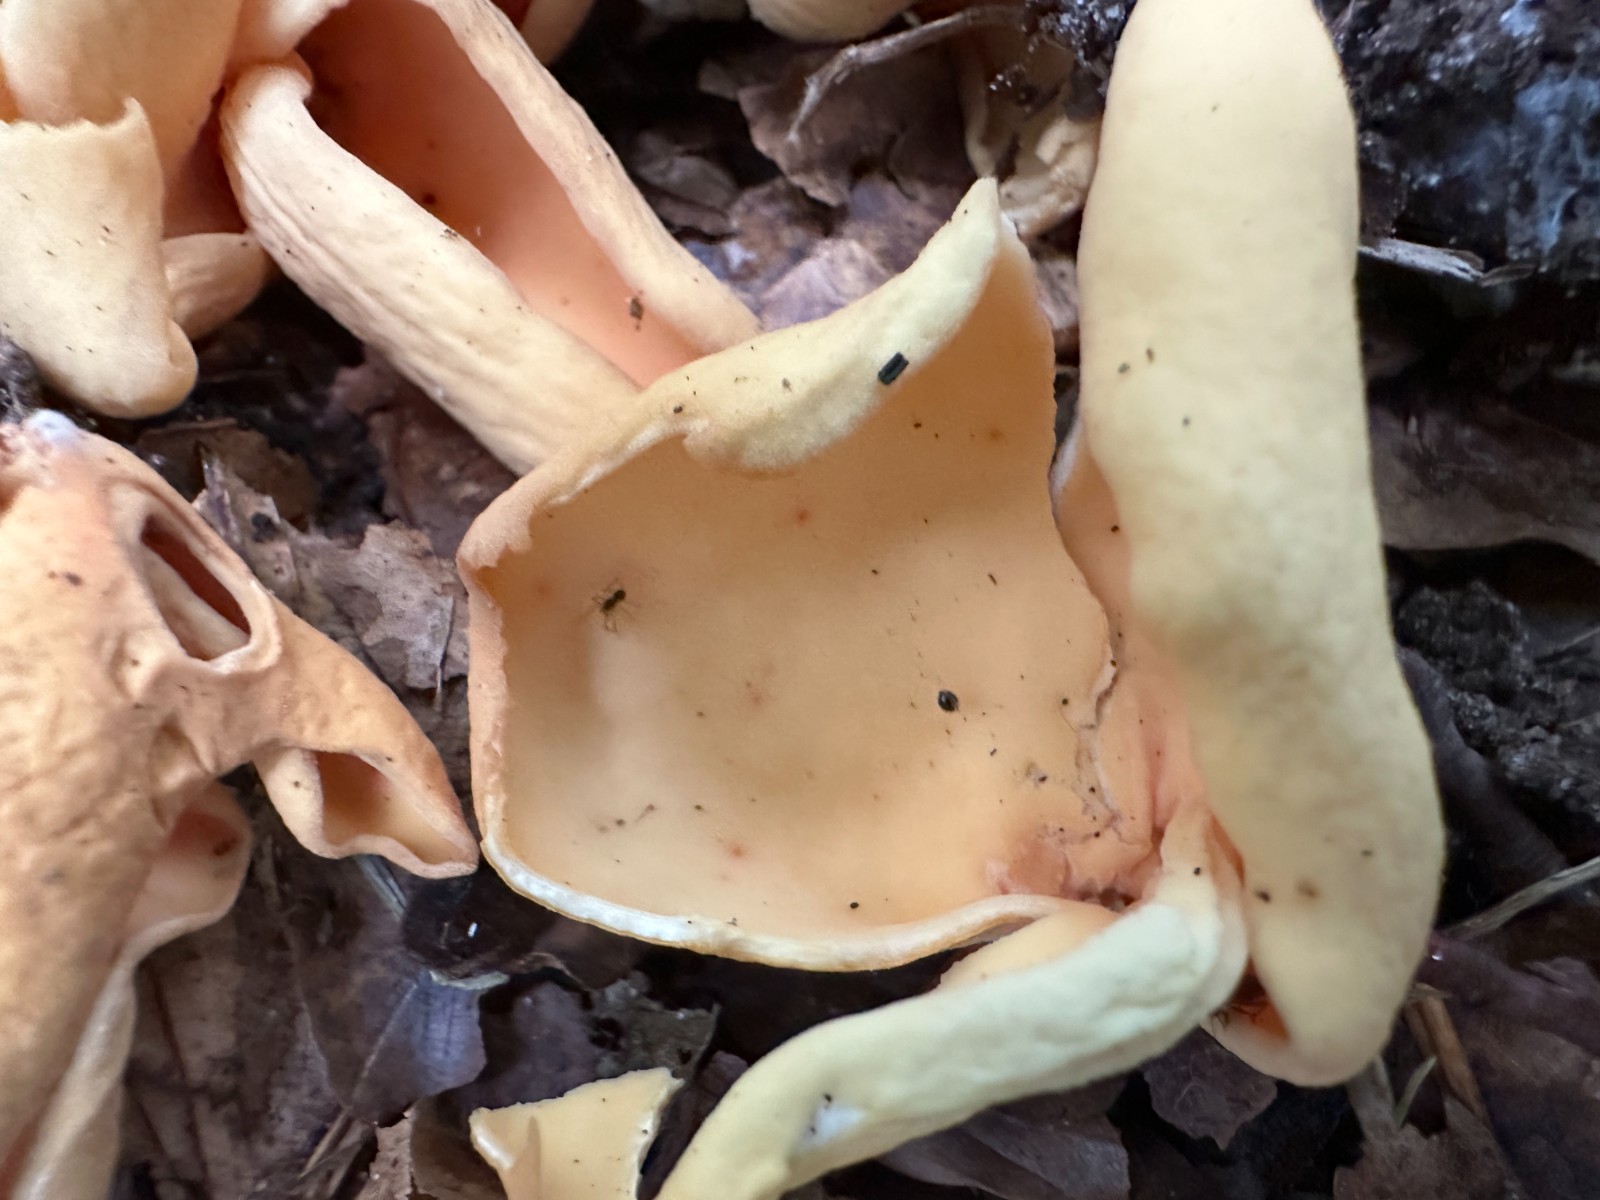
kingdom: Fungi
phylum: Ascomycota
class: Pezizomycetes
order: Pezizales
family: Otideaceae
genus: Otidea
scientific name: Otidea onotica
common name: æsel-ørebæger
